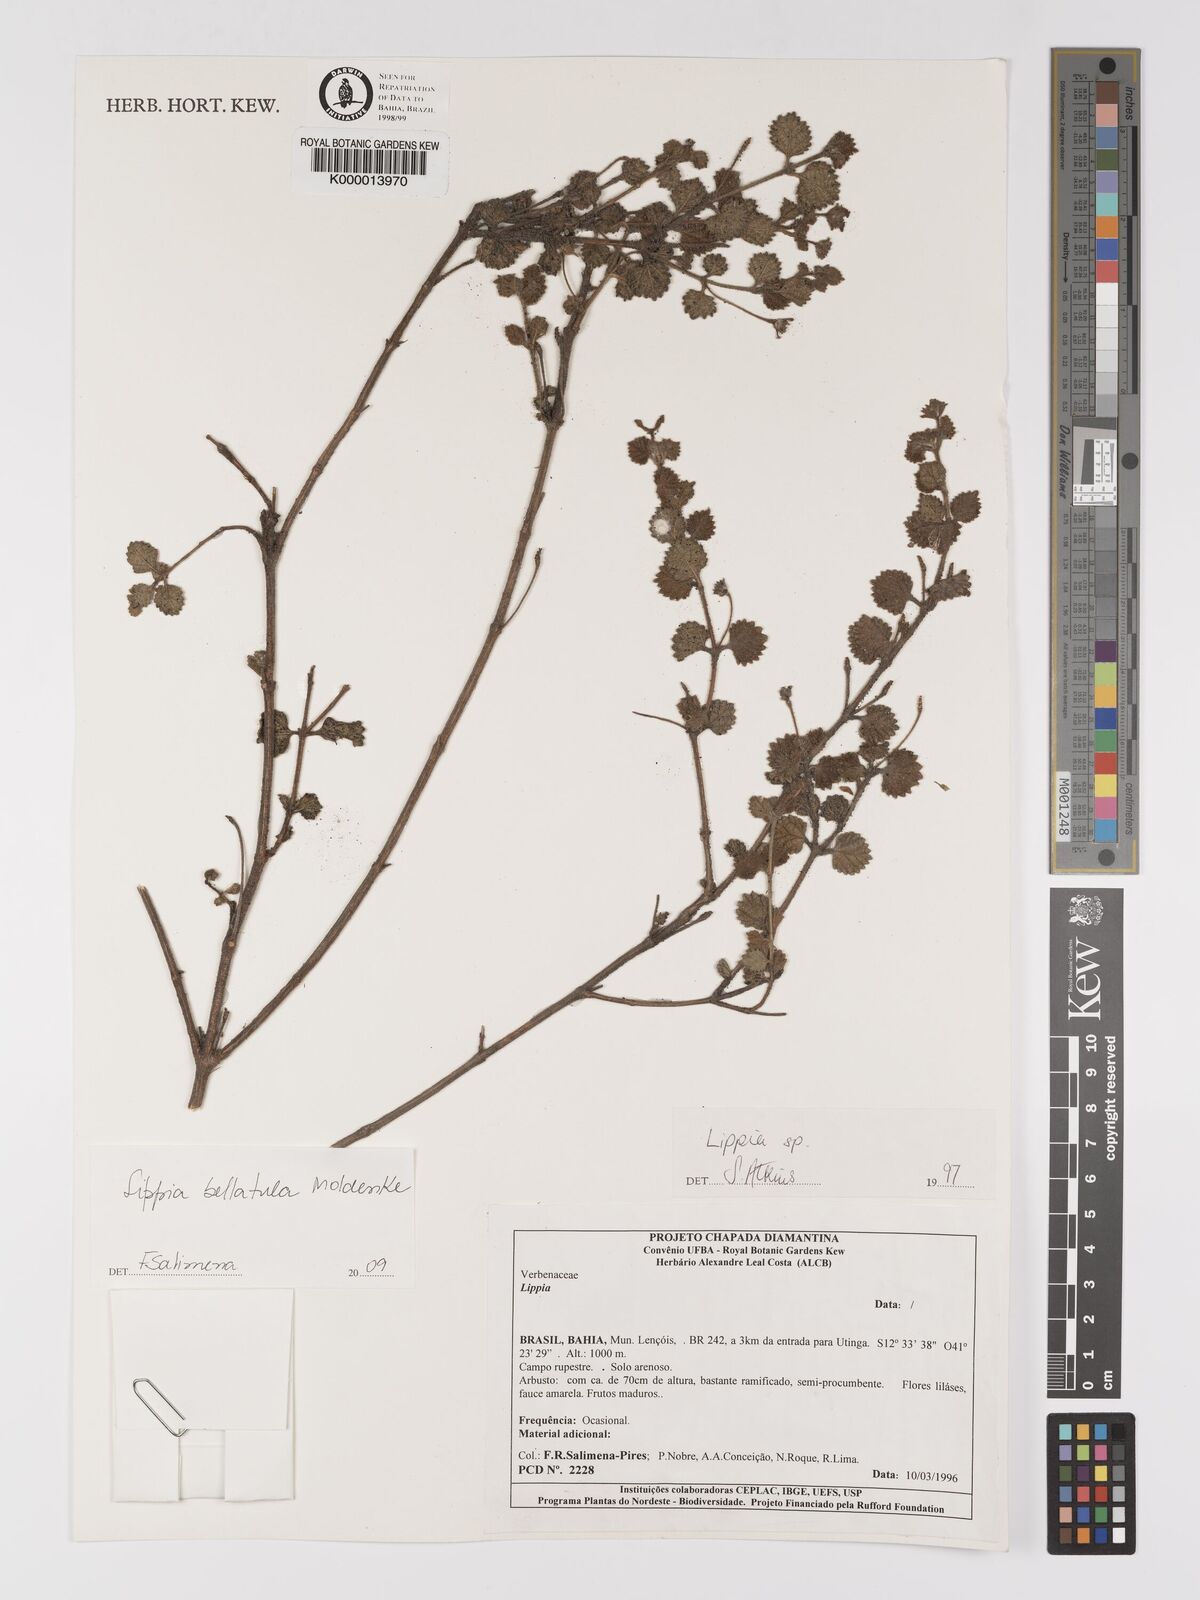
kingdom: Plantae
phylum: Tracheophyta
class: Magnoliopsida
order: Lamiales
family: Verbenaceae
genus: Lippia
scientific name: Lippia bellatula
